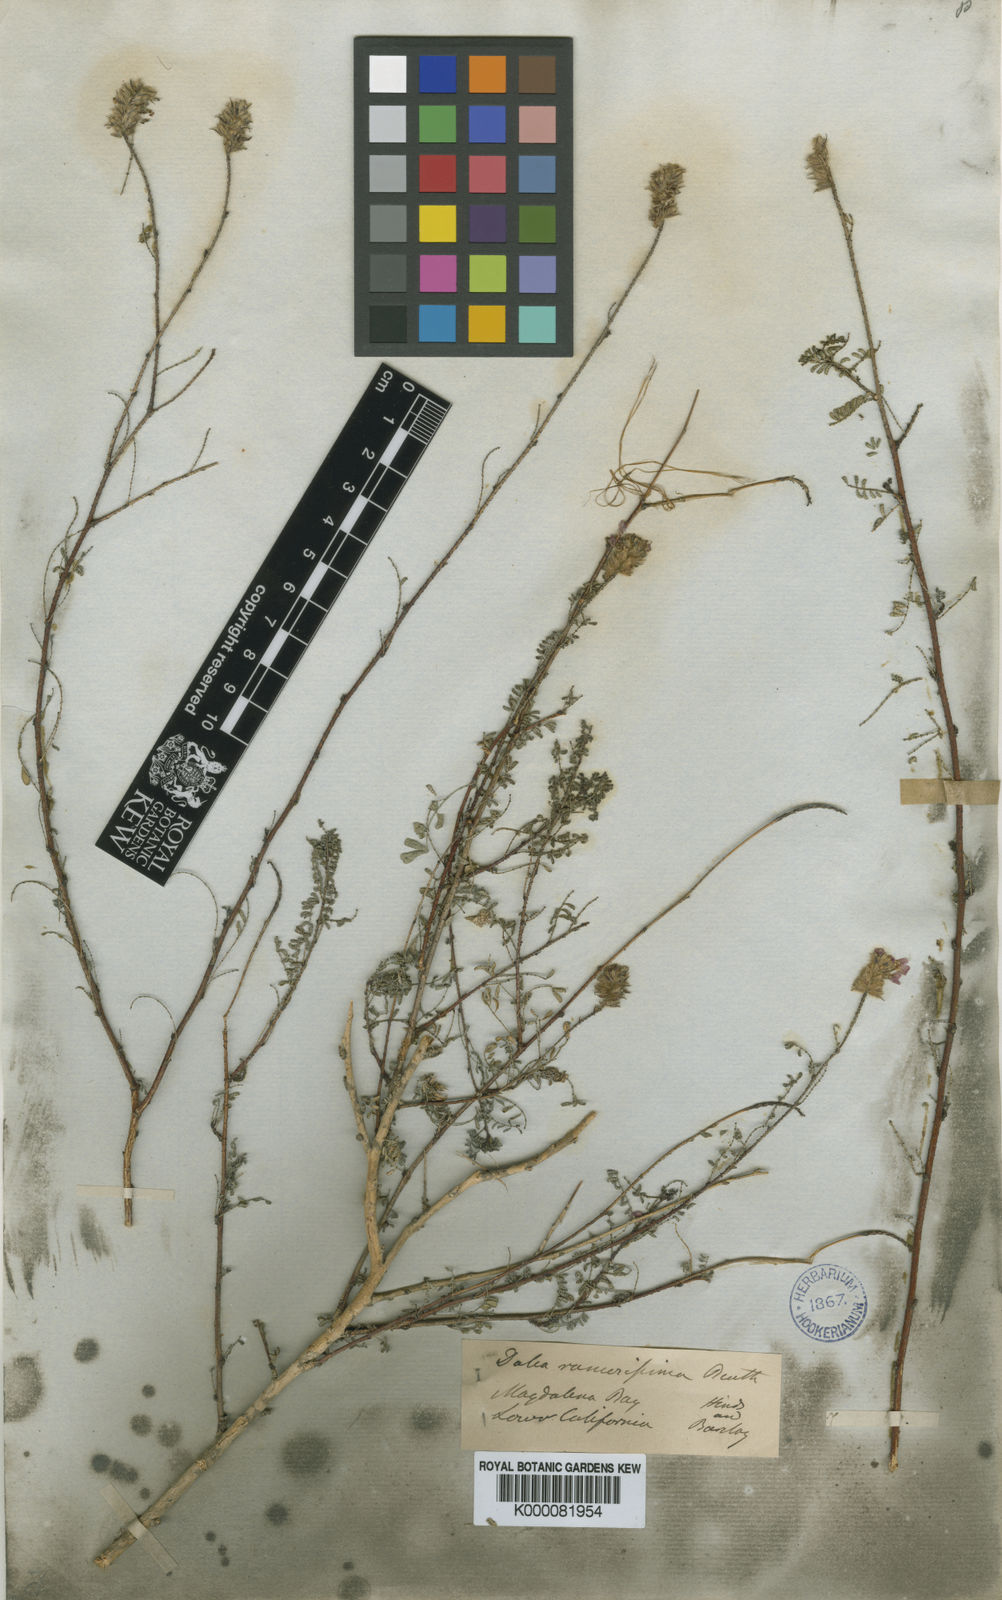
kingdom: Plantae
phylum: Tracheophyta
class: Magnoliopsida
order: Fabales
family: Fabaceae
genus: Dalea
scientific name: Dalea brandegeei
